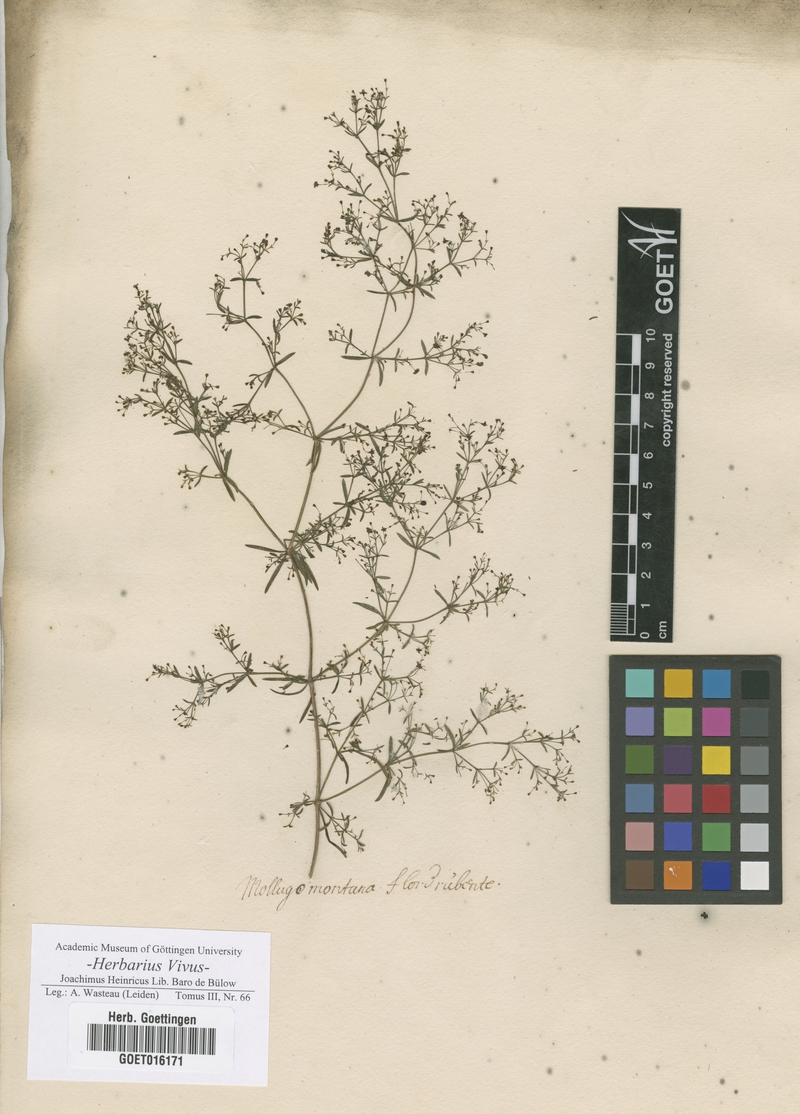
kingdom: Plantae
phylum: Tracheophyta
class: Magnoliopsida
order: Caryophyllales
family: Molluginaceae
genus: Mollugo
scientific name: Mollugo
